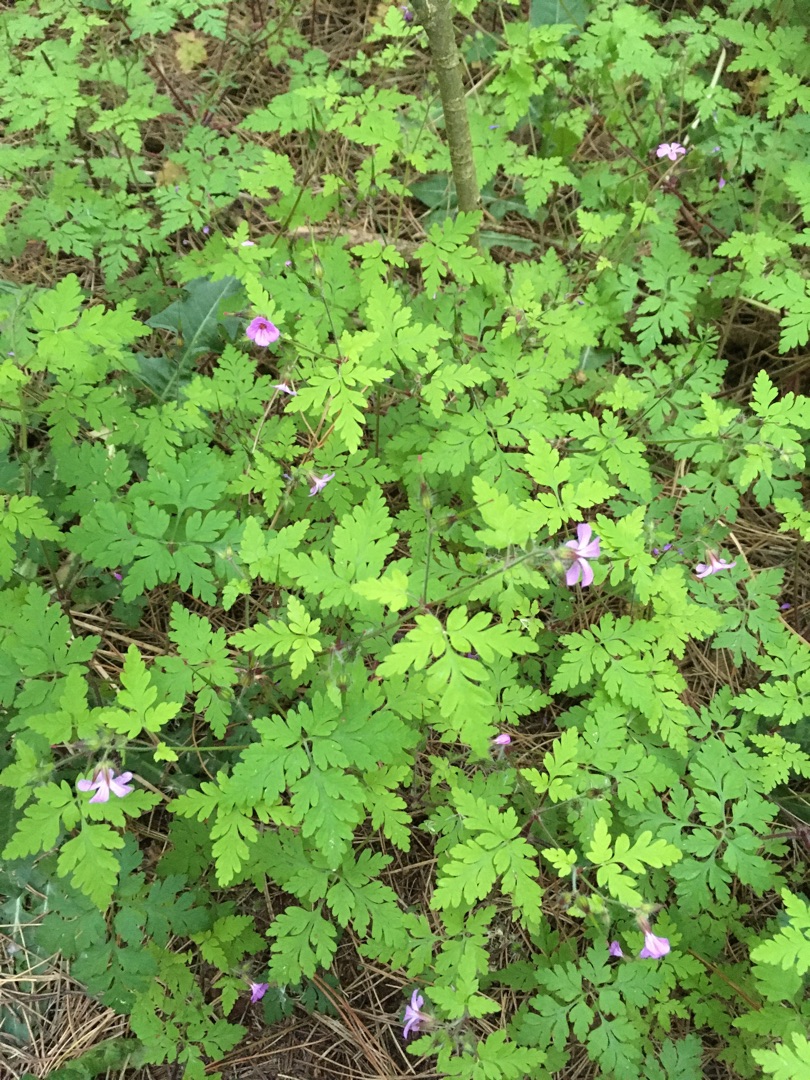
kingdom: Plantae
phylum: Tracheophyta
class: Magnoliopsida
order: Geraniales
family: Geraniaceae
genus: Geranium
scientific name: Geranium robertianum
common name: Stinkende storkenæb
